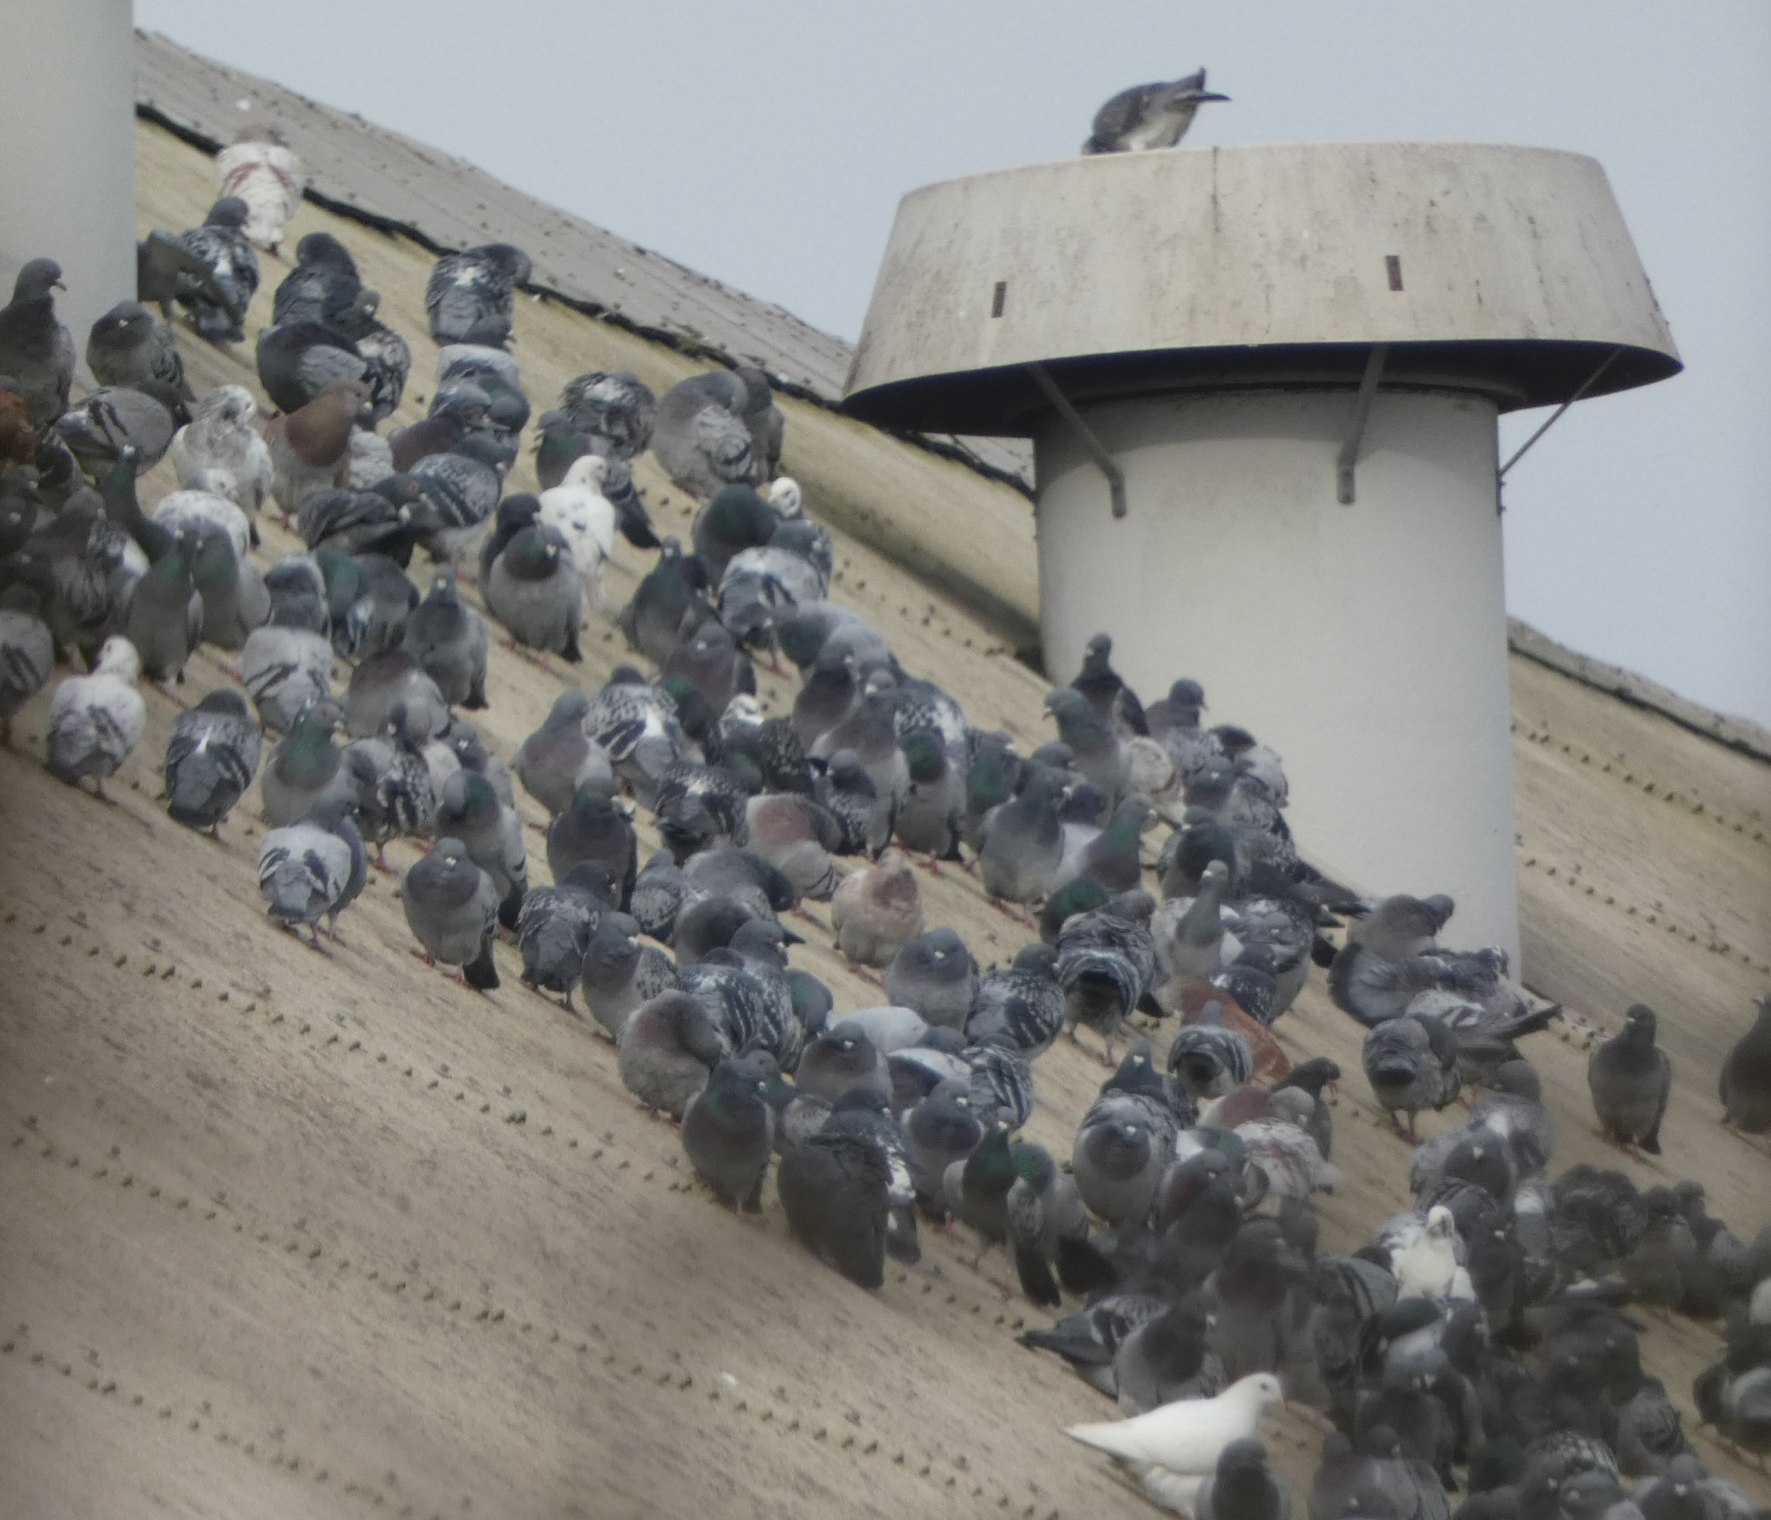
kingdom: Animalia
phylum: Chordata
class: Aves
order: Columbiformes
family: Columbidae
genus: Columba
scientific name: Columba livia
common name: Tamdue
